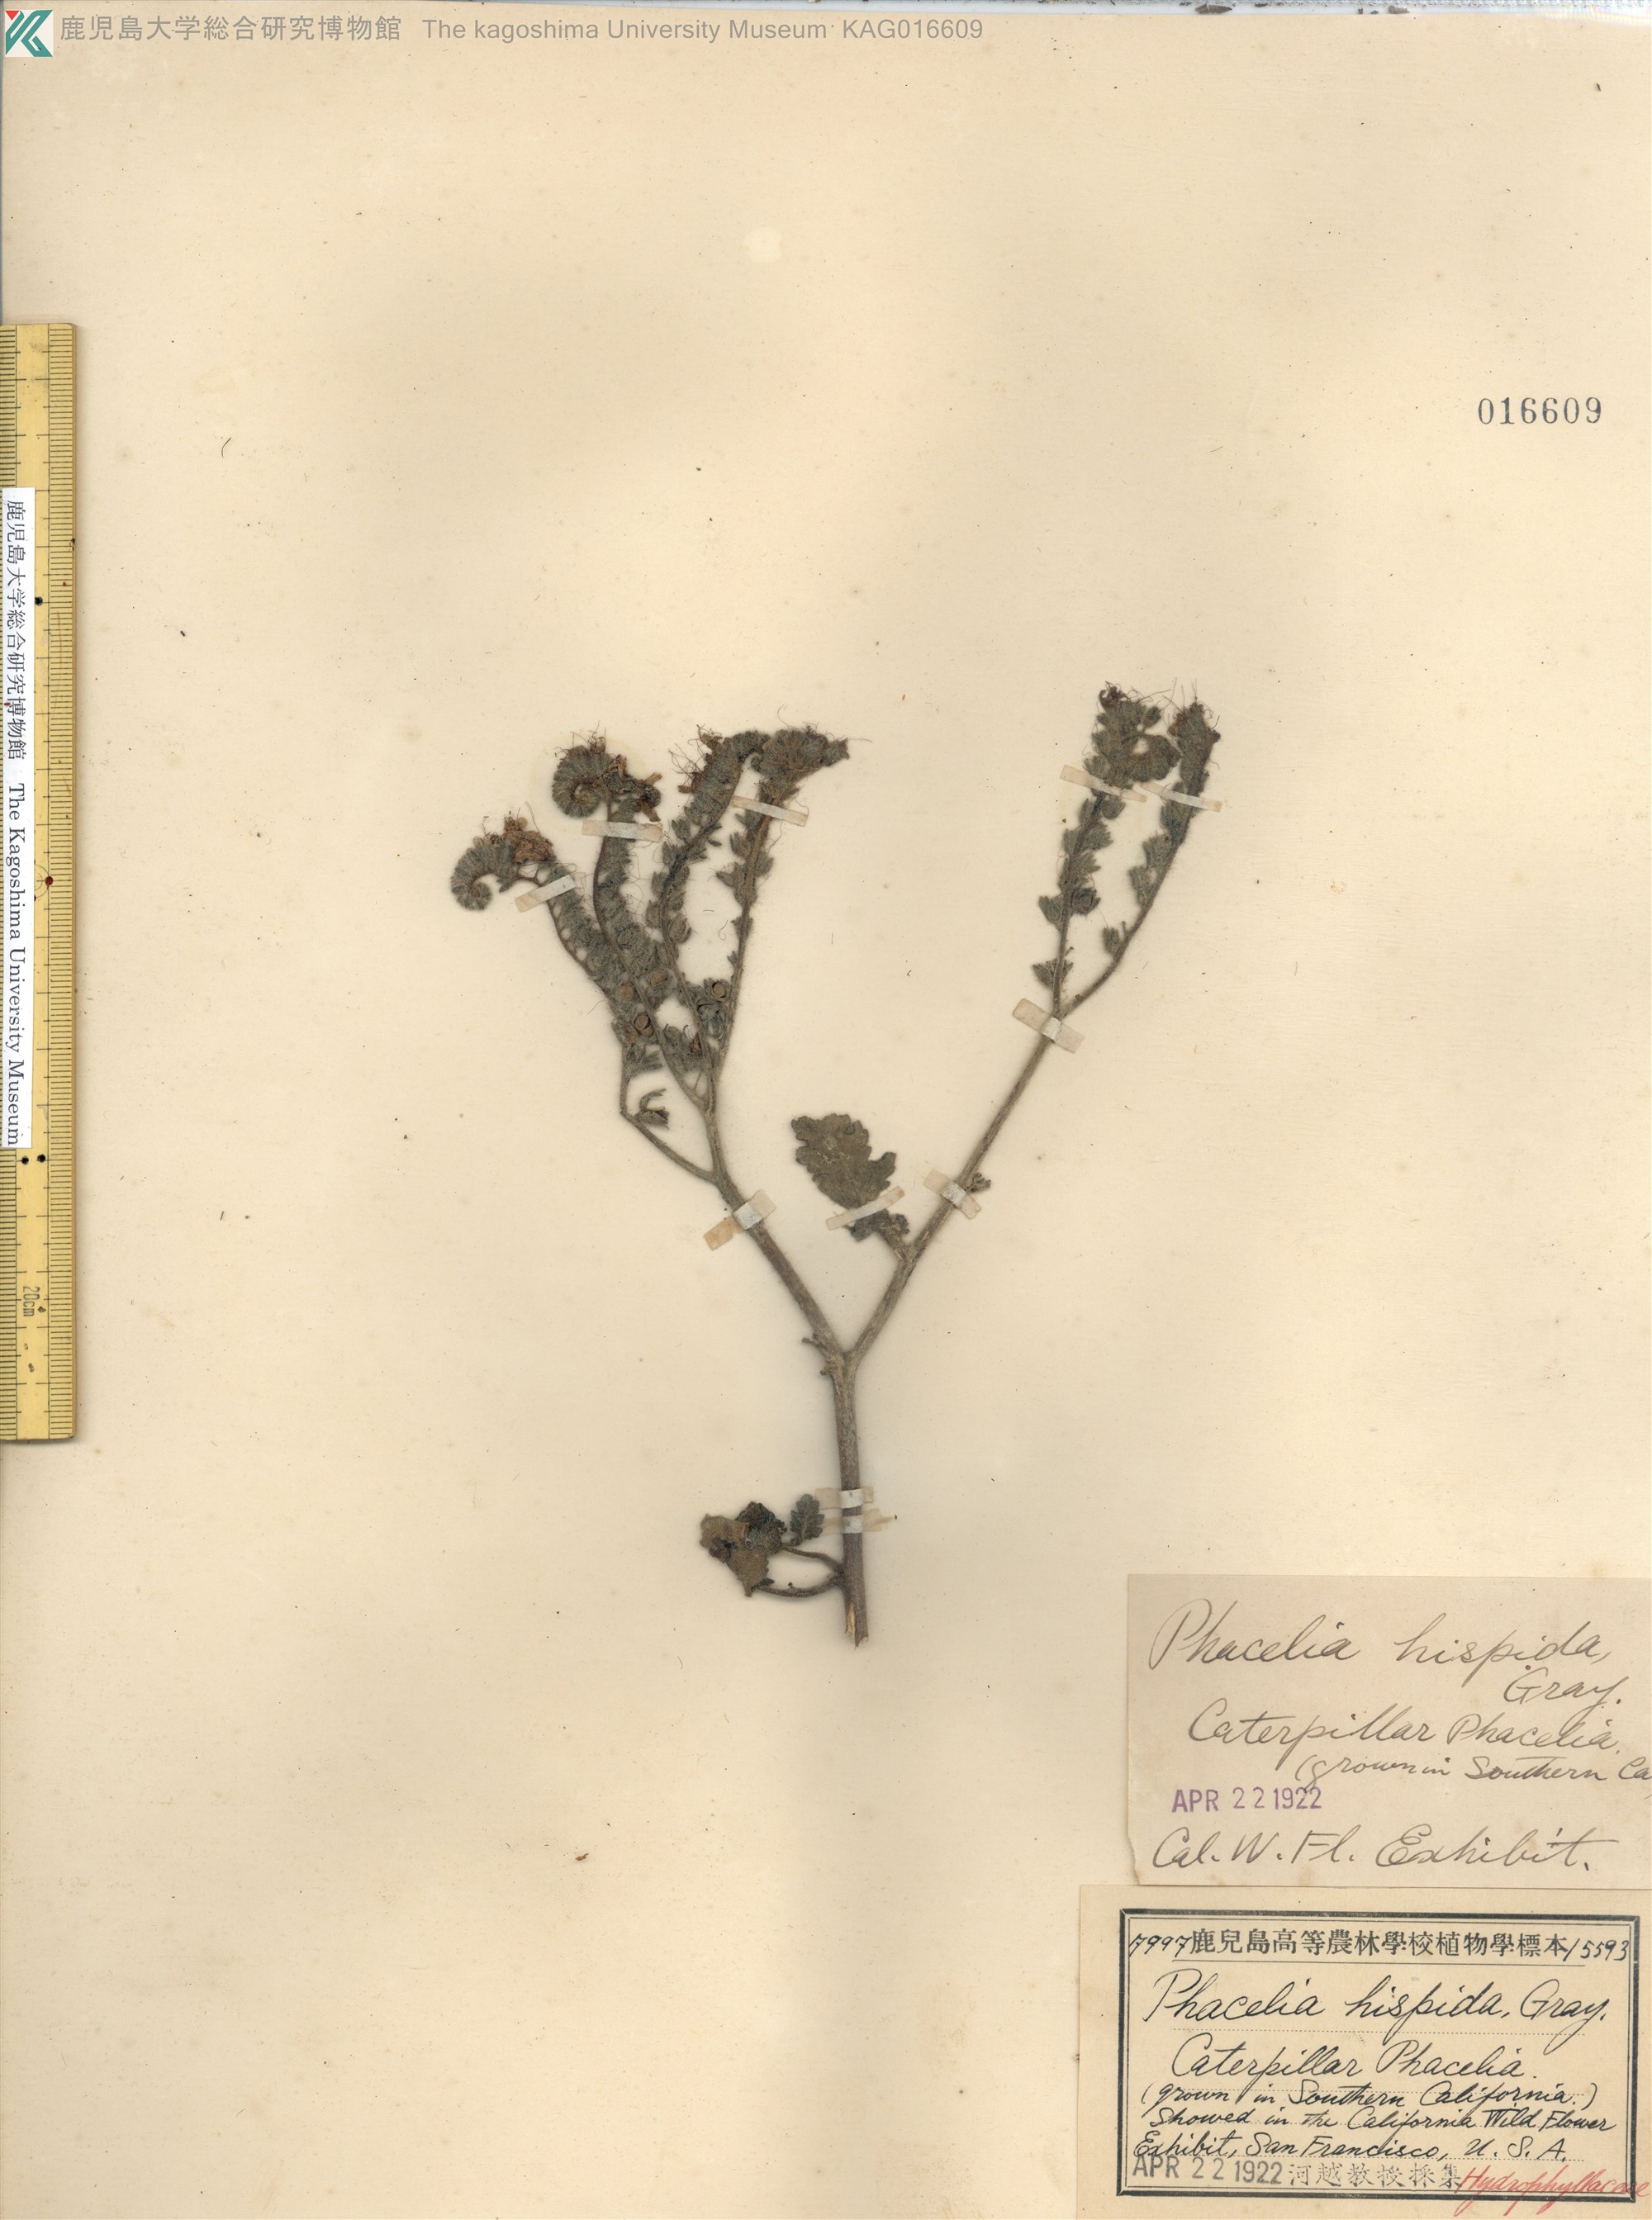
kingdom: Plantae
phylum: Tracheophyta
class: Magnoliopsida
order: Boraginales
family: Hydrophyllaceae
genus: Phacelia
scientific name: Phacelia patuliflora
